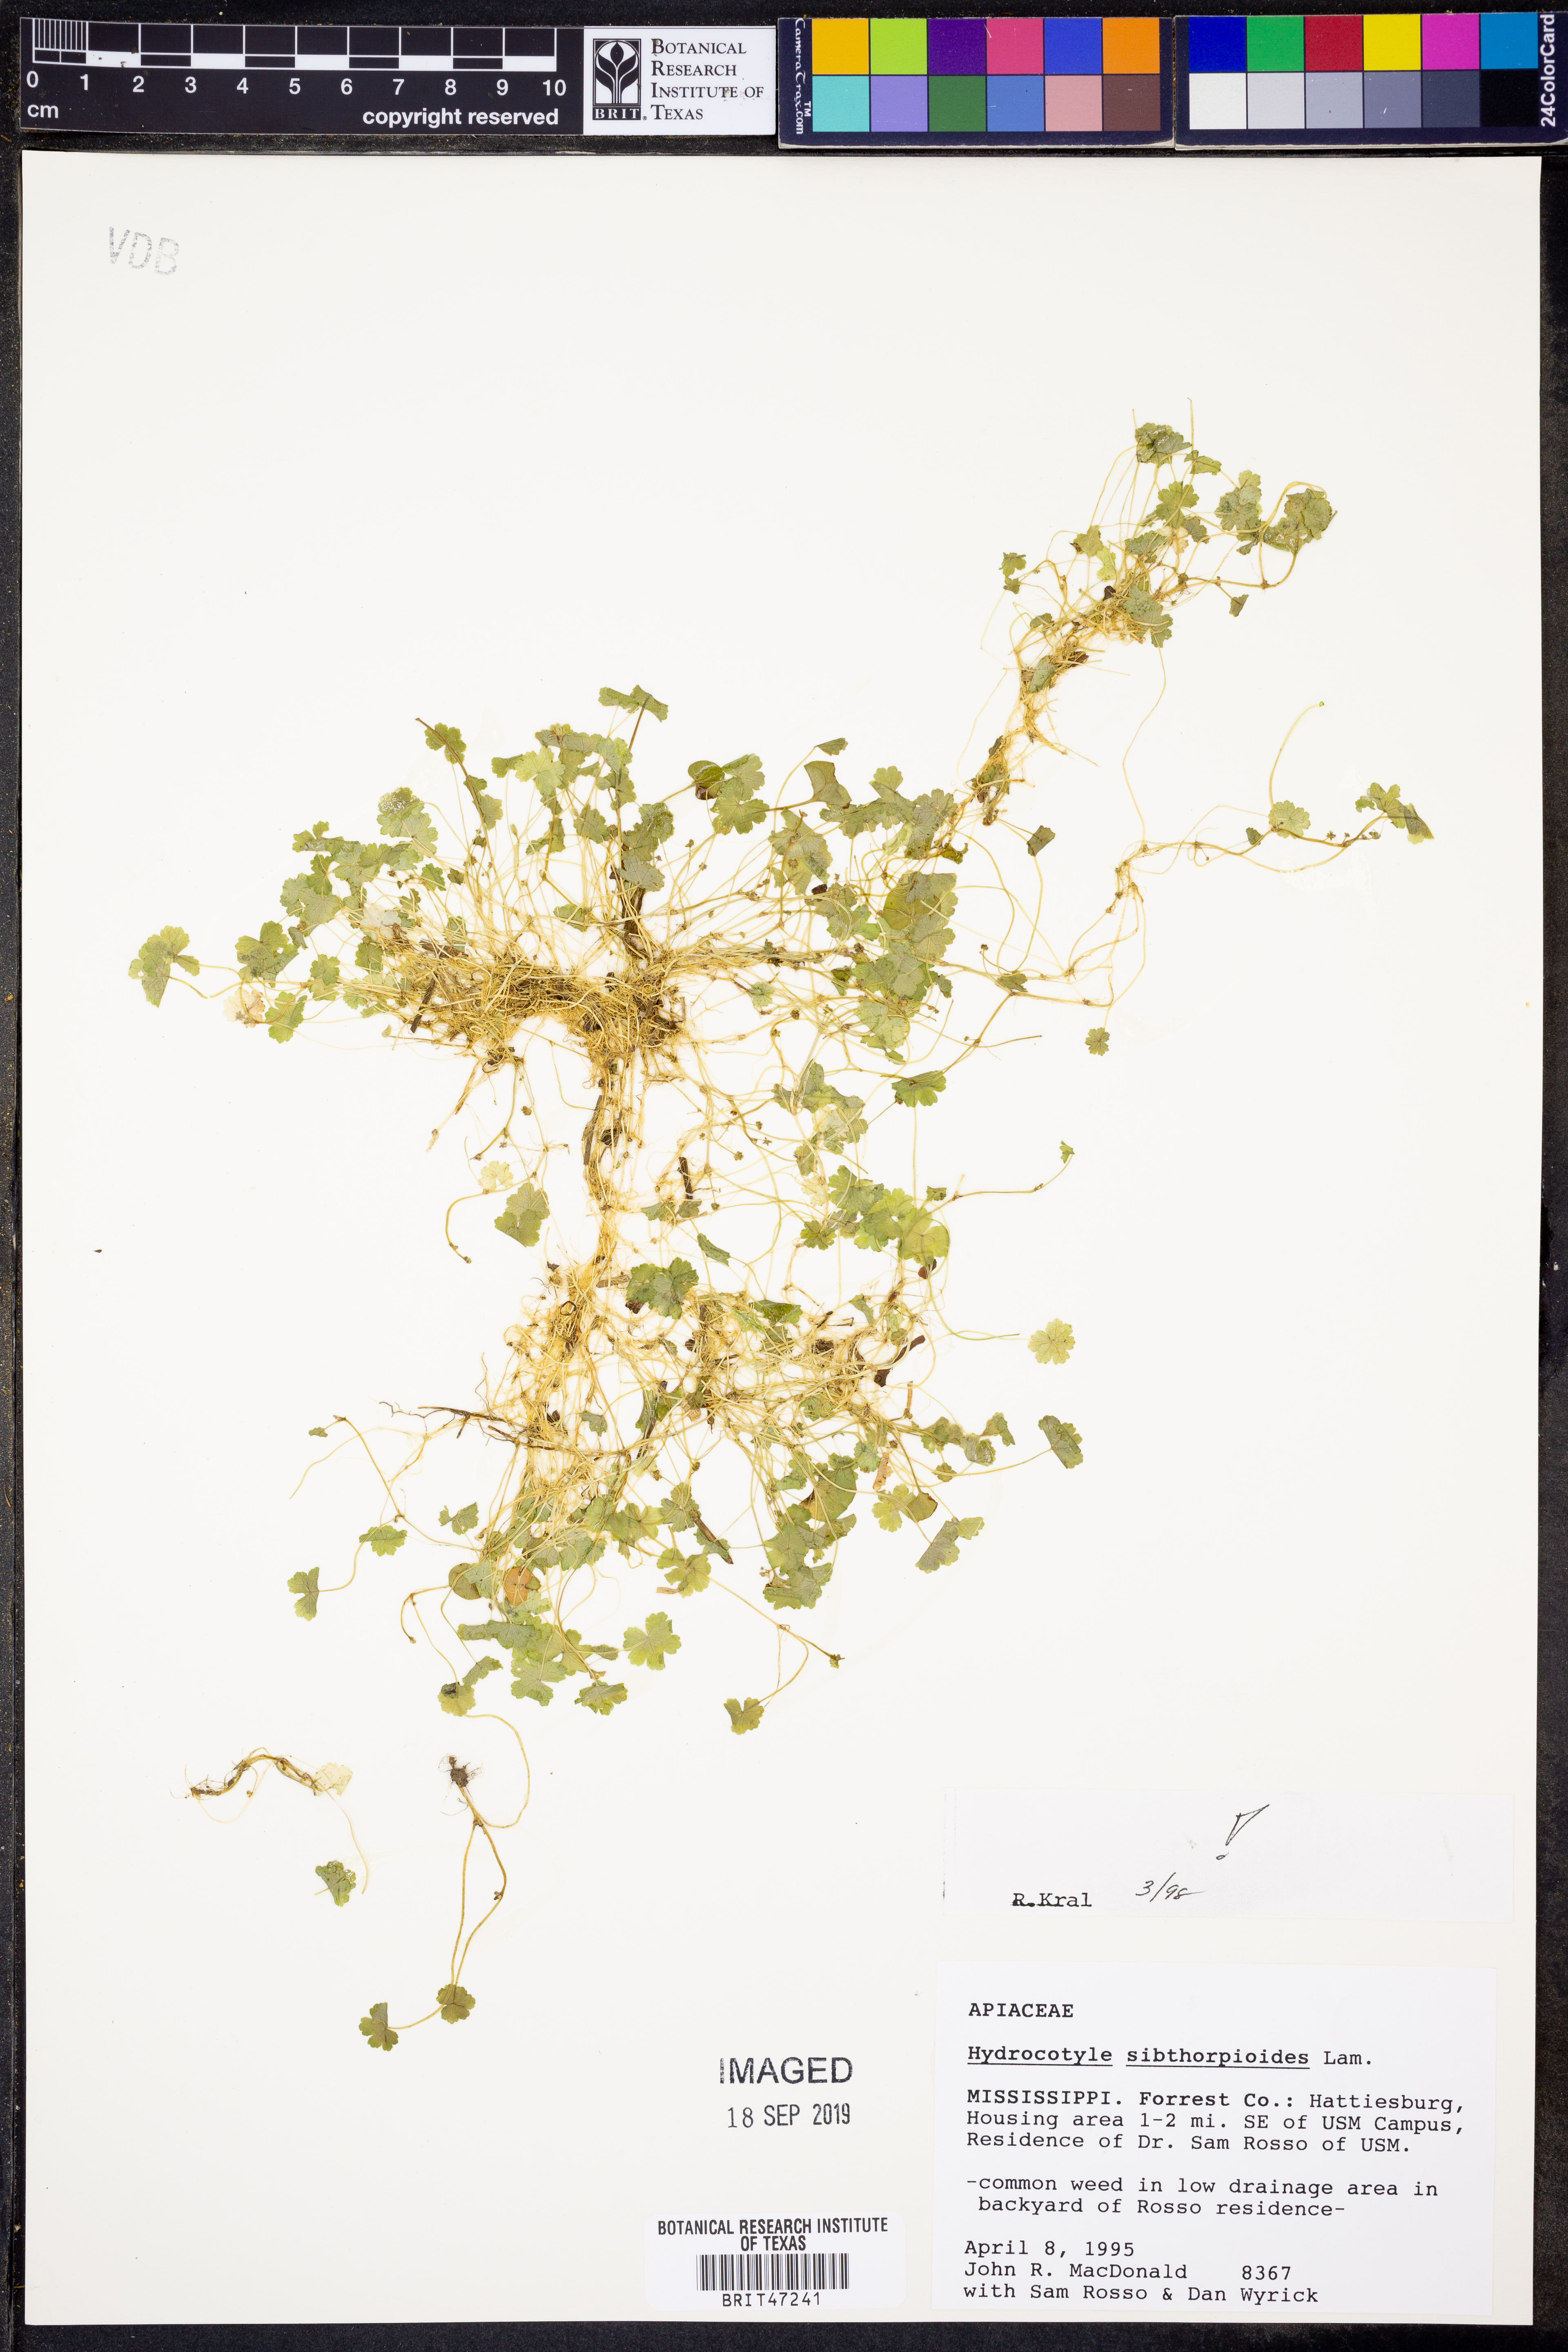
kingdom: Plantae
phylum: Tracheophyta
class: Magnoliopsida
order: Apiales
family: Araliaceae
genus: Hydrocotyle
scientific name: Hydrocotyle sibthorpioides
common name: Lawn marshpennywort
